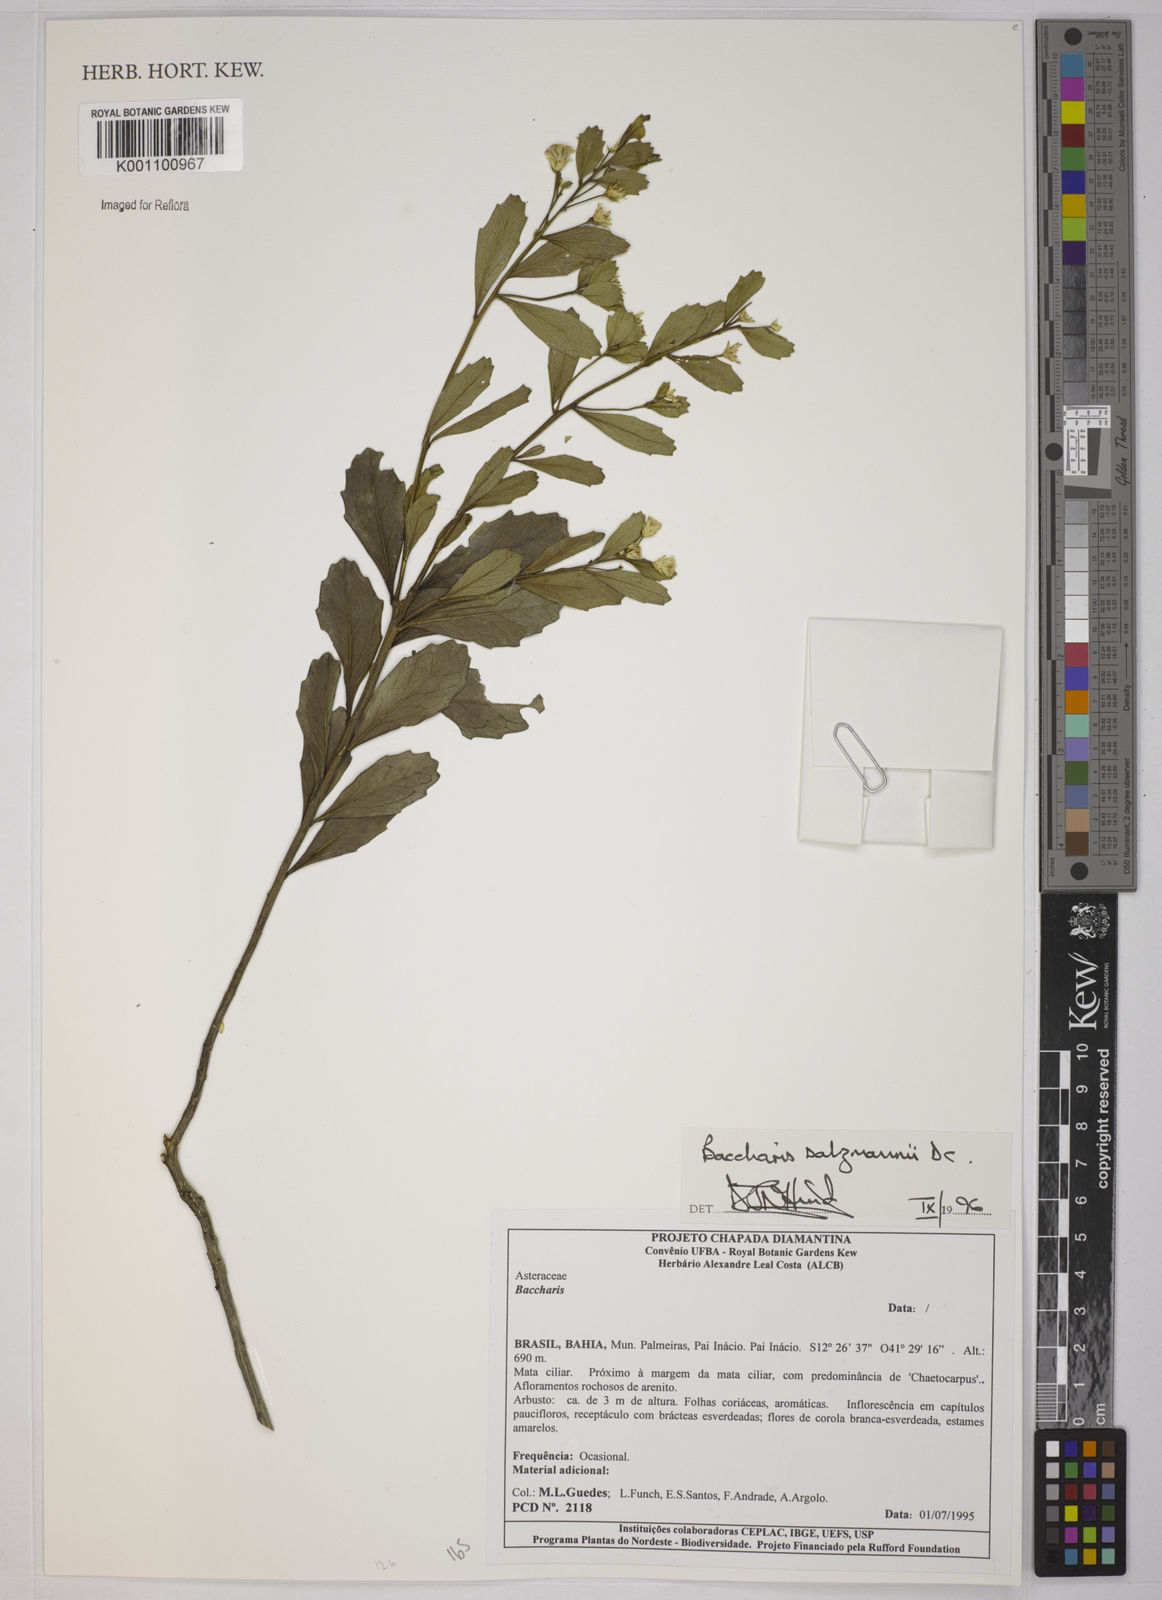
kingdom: Plantae
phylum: Tracheophyta
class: Magnoliopsida
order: Asterales
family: Asteraceae
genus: Baccharis
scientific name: Baccharis retusa
